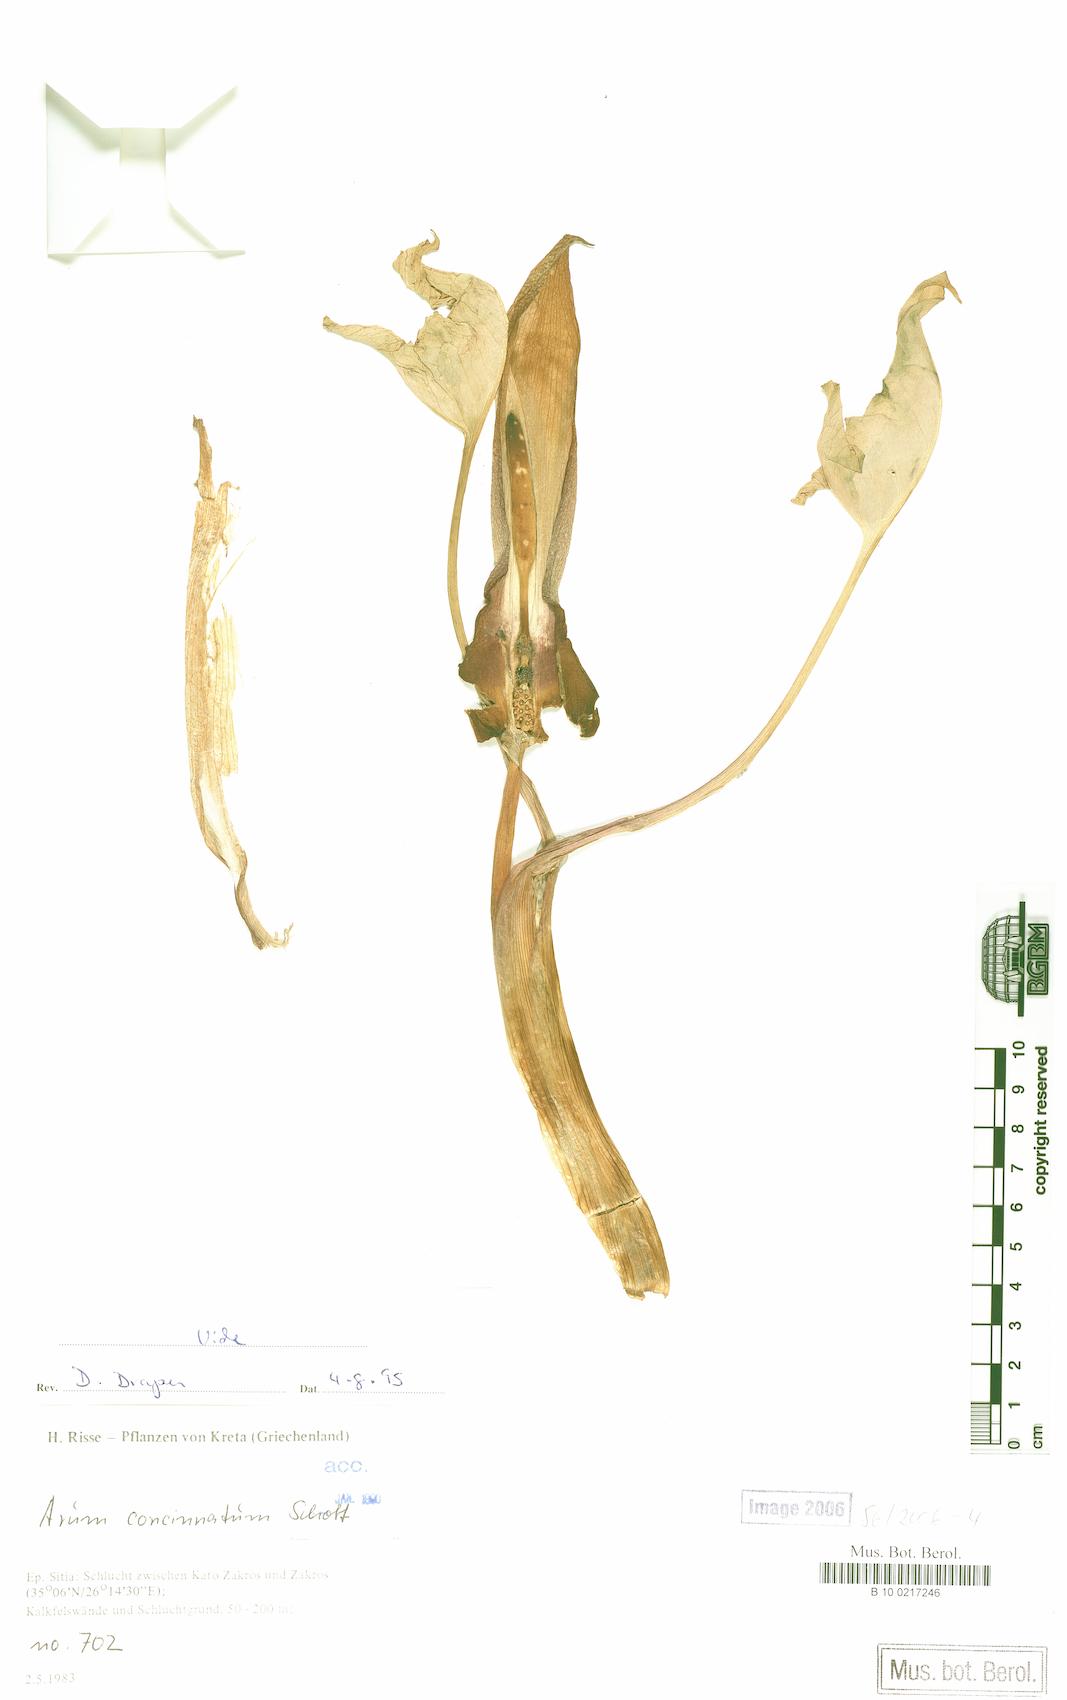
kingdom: Plantae
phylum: Tracheophyta
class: Liliopsida
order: Alismatales
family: Araceae
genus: Arum
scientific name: Arum concinnatum
